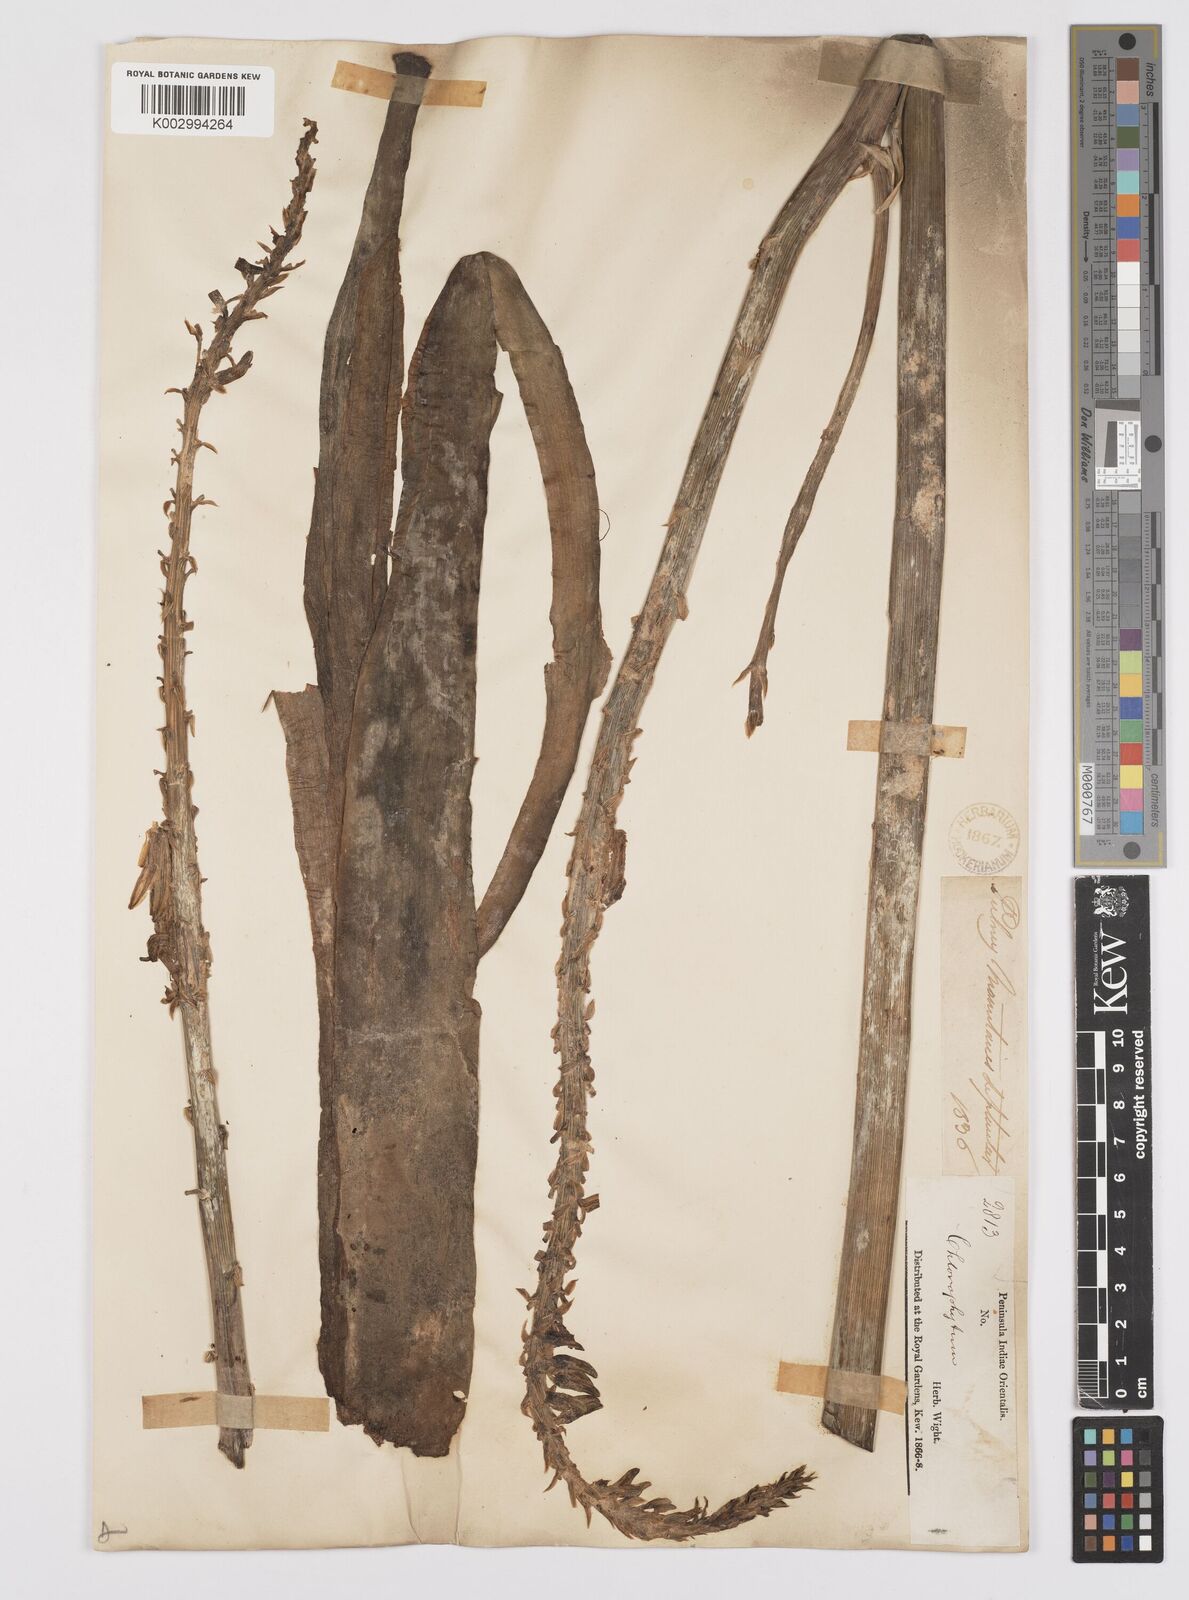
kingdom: Plantae
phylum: Tracheophyta
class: Liliopsida
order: Asparagales
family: Asphodelaceae
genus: Aloe
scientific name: Aloe vera
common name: Barbados aloe
